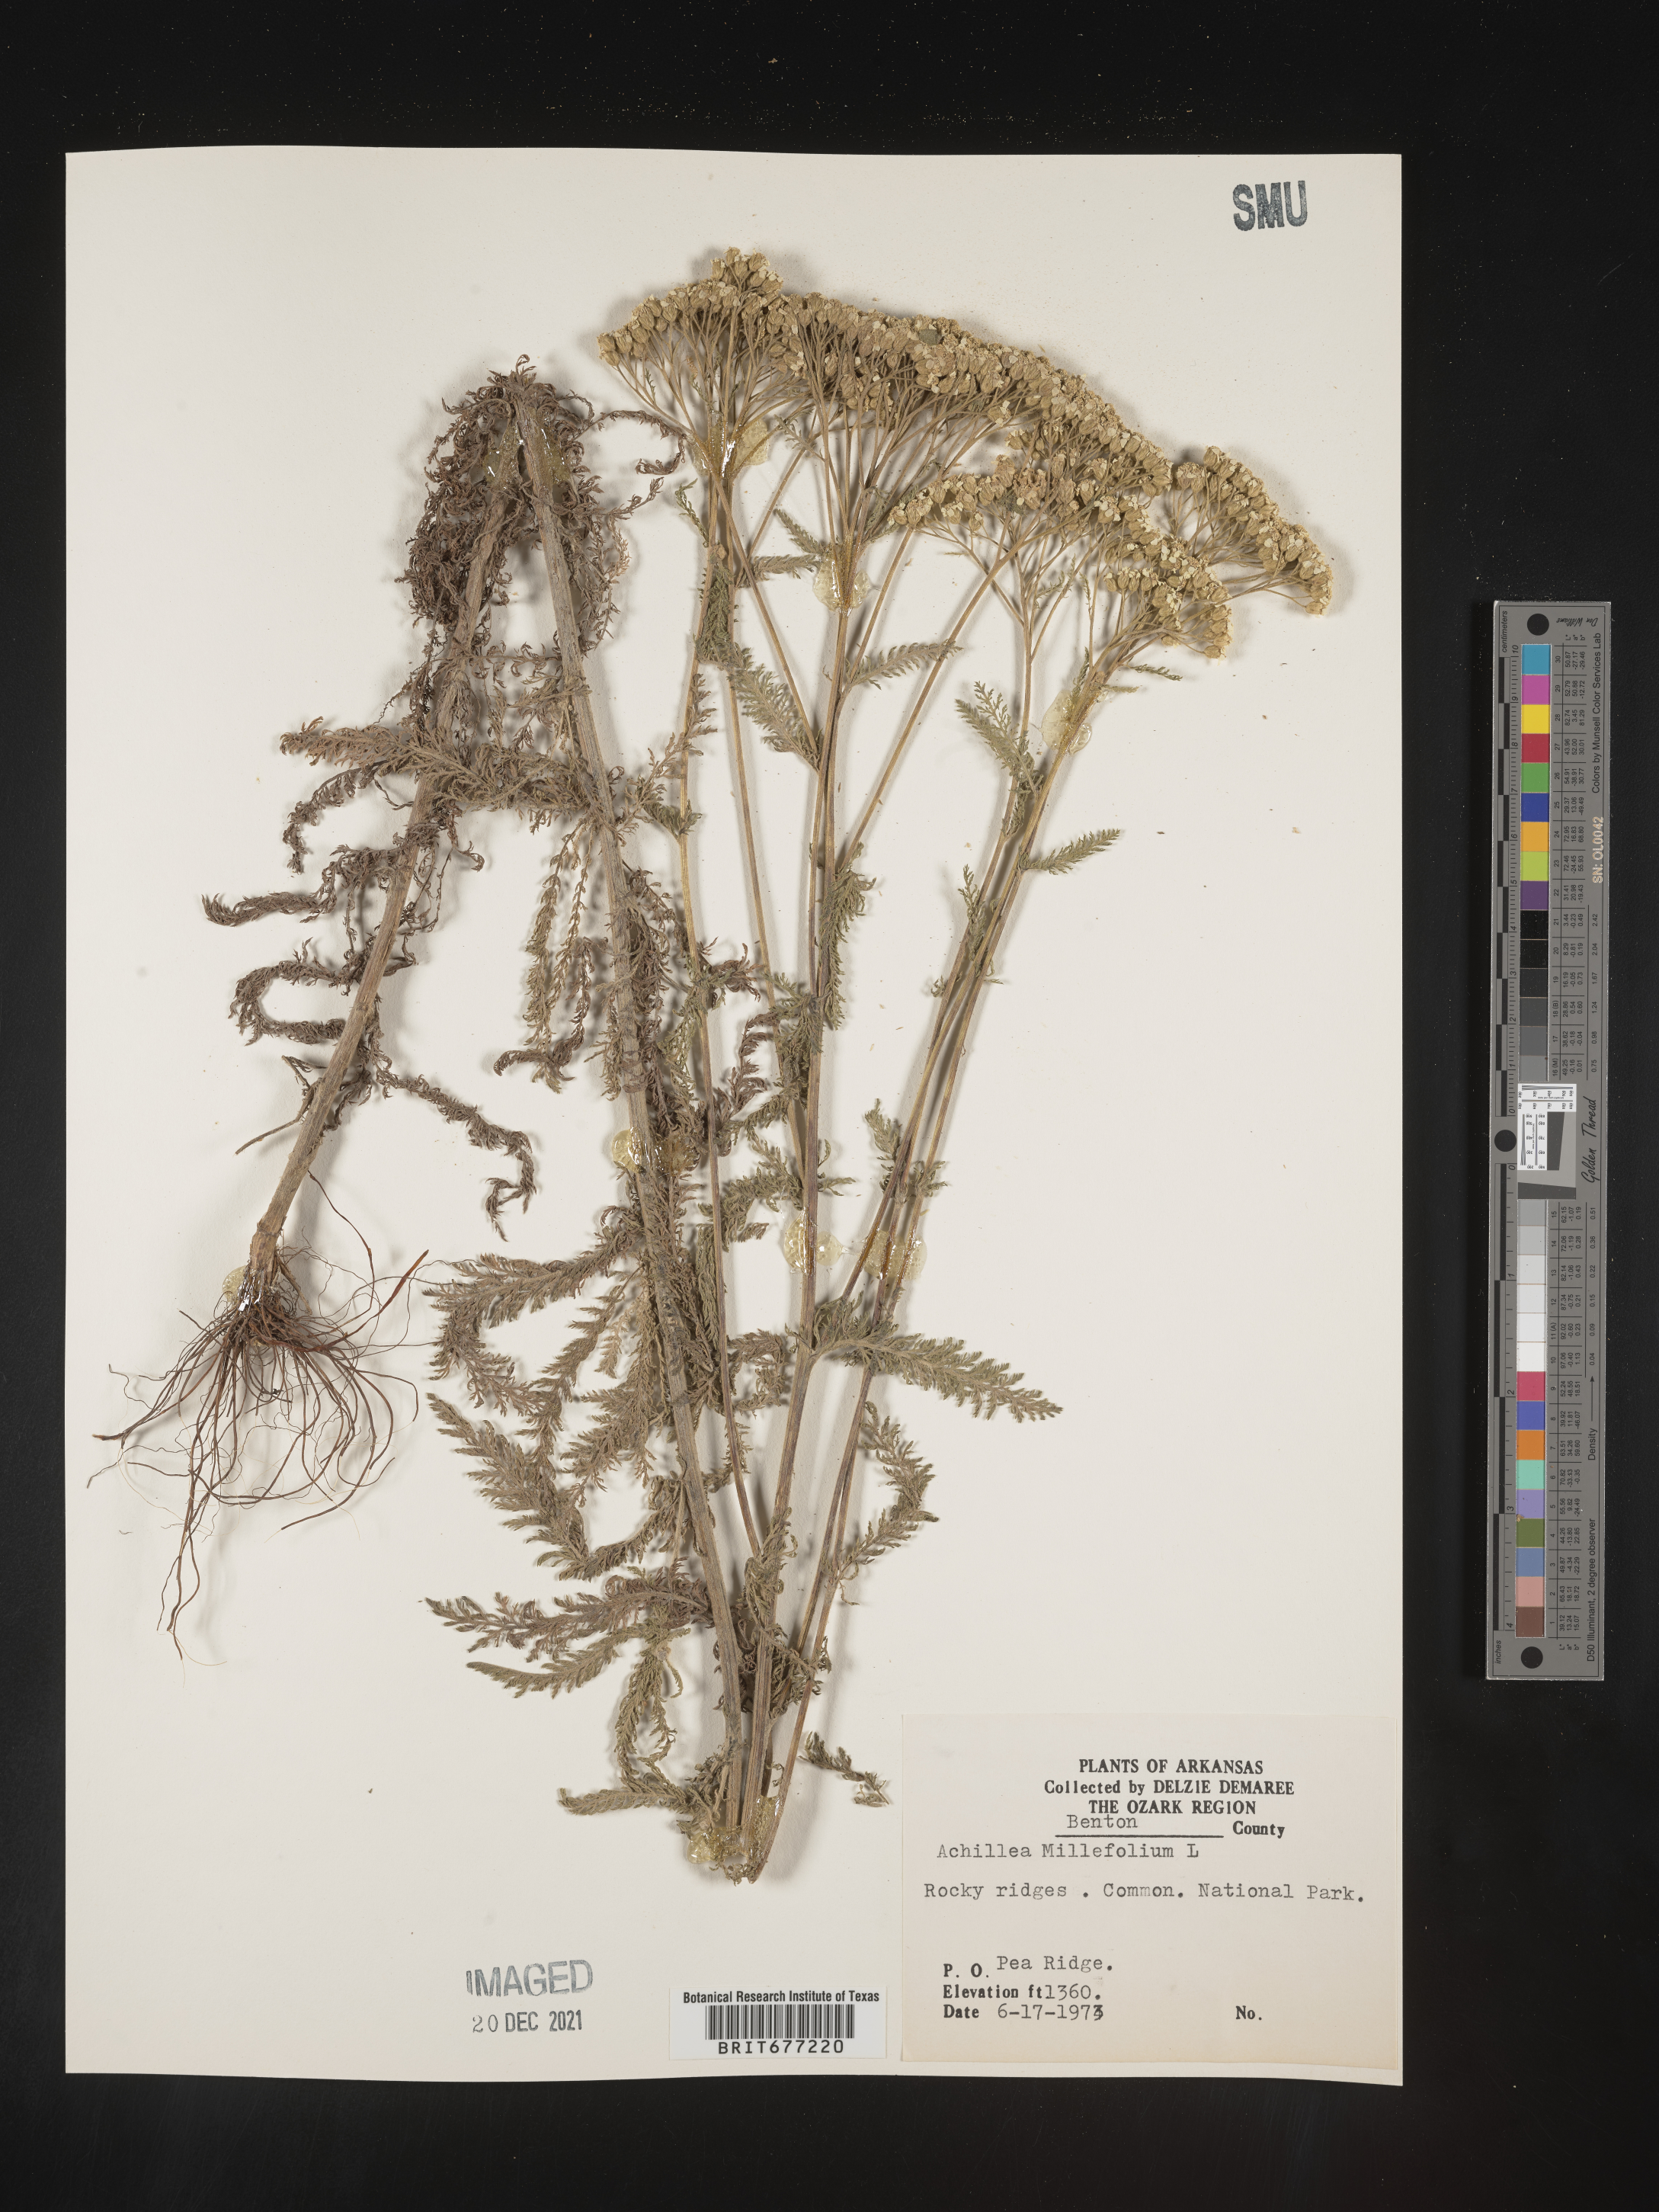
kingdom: Plantae
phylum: Tracheophyta
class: Magnoliopsida
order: Asterales
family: Asteraceae
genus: Achillea
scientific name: Achillea millefolium
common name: Yarrow
